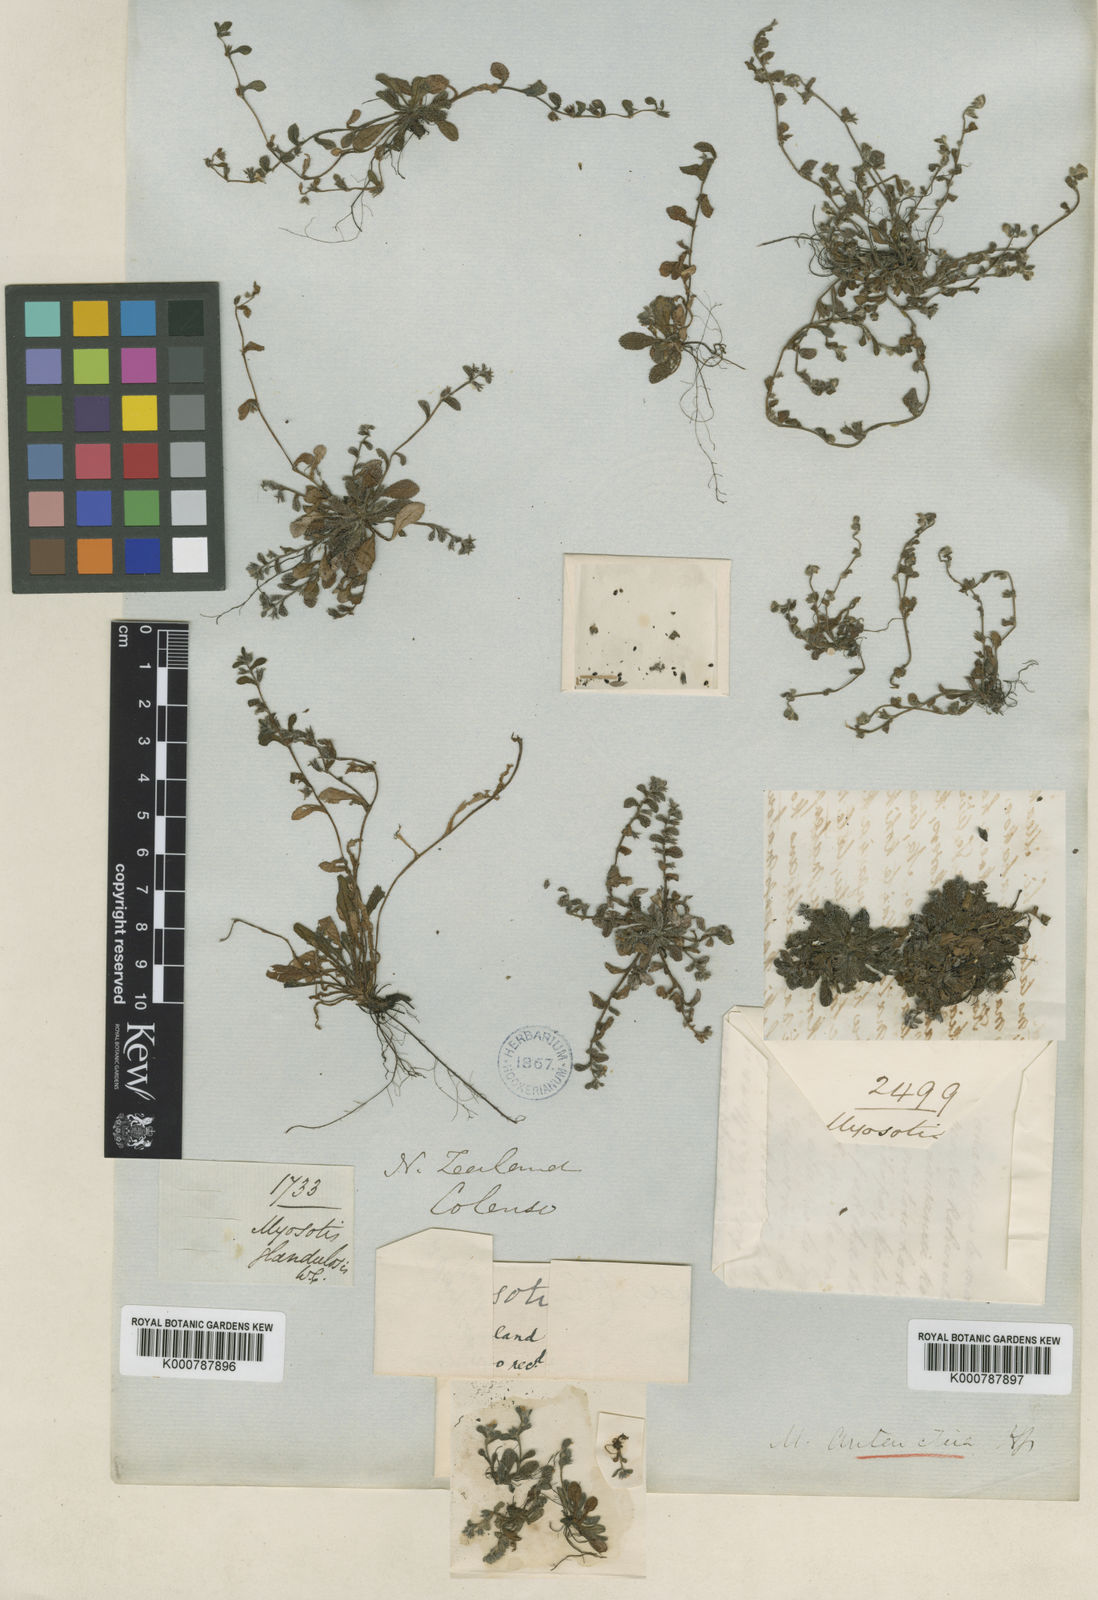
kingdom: Plantae
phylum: Tracheophyta
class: Magnoliopsida
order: Boraginales
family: Boraginaceae
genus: Myosotis
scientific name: Myosotis antarctica
